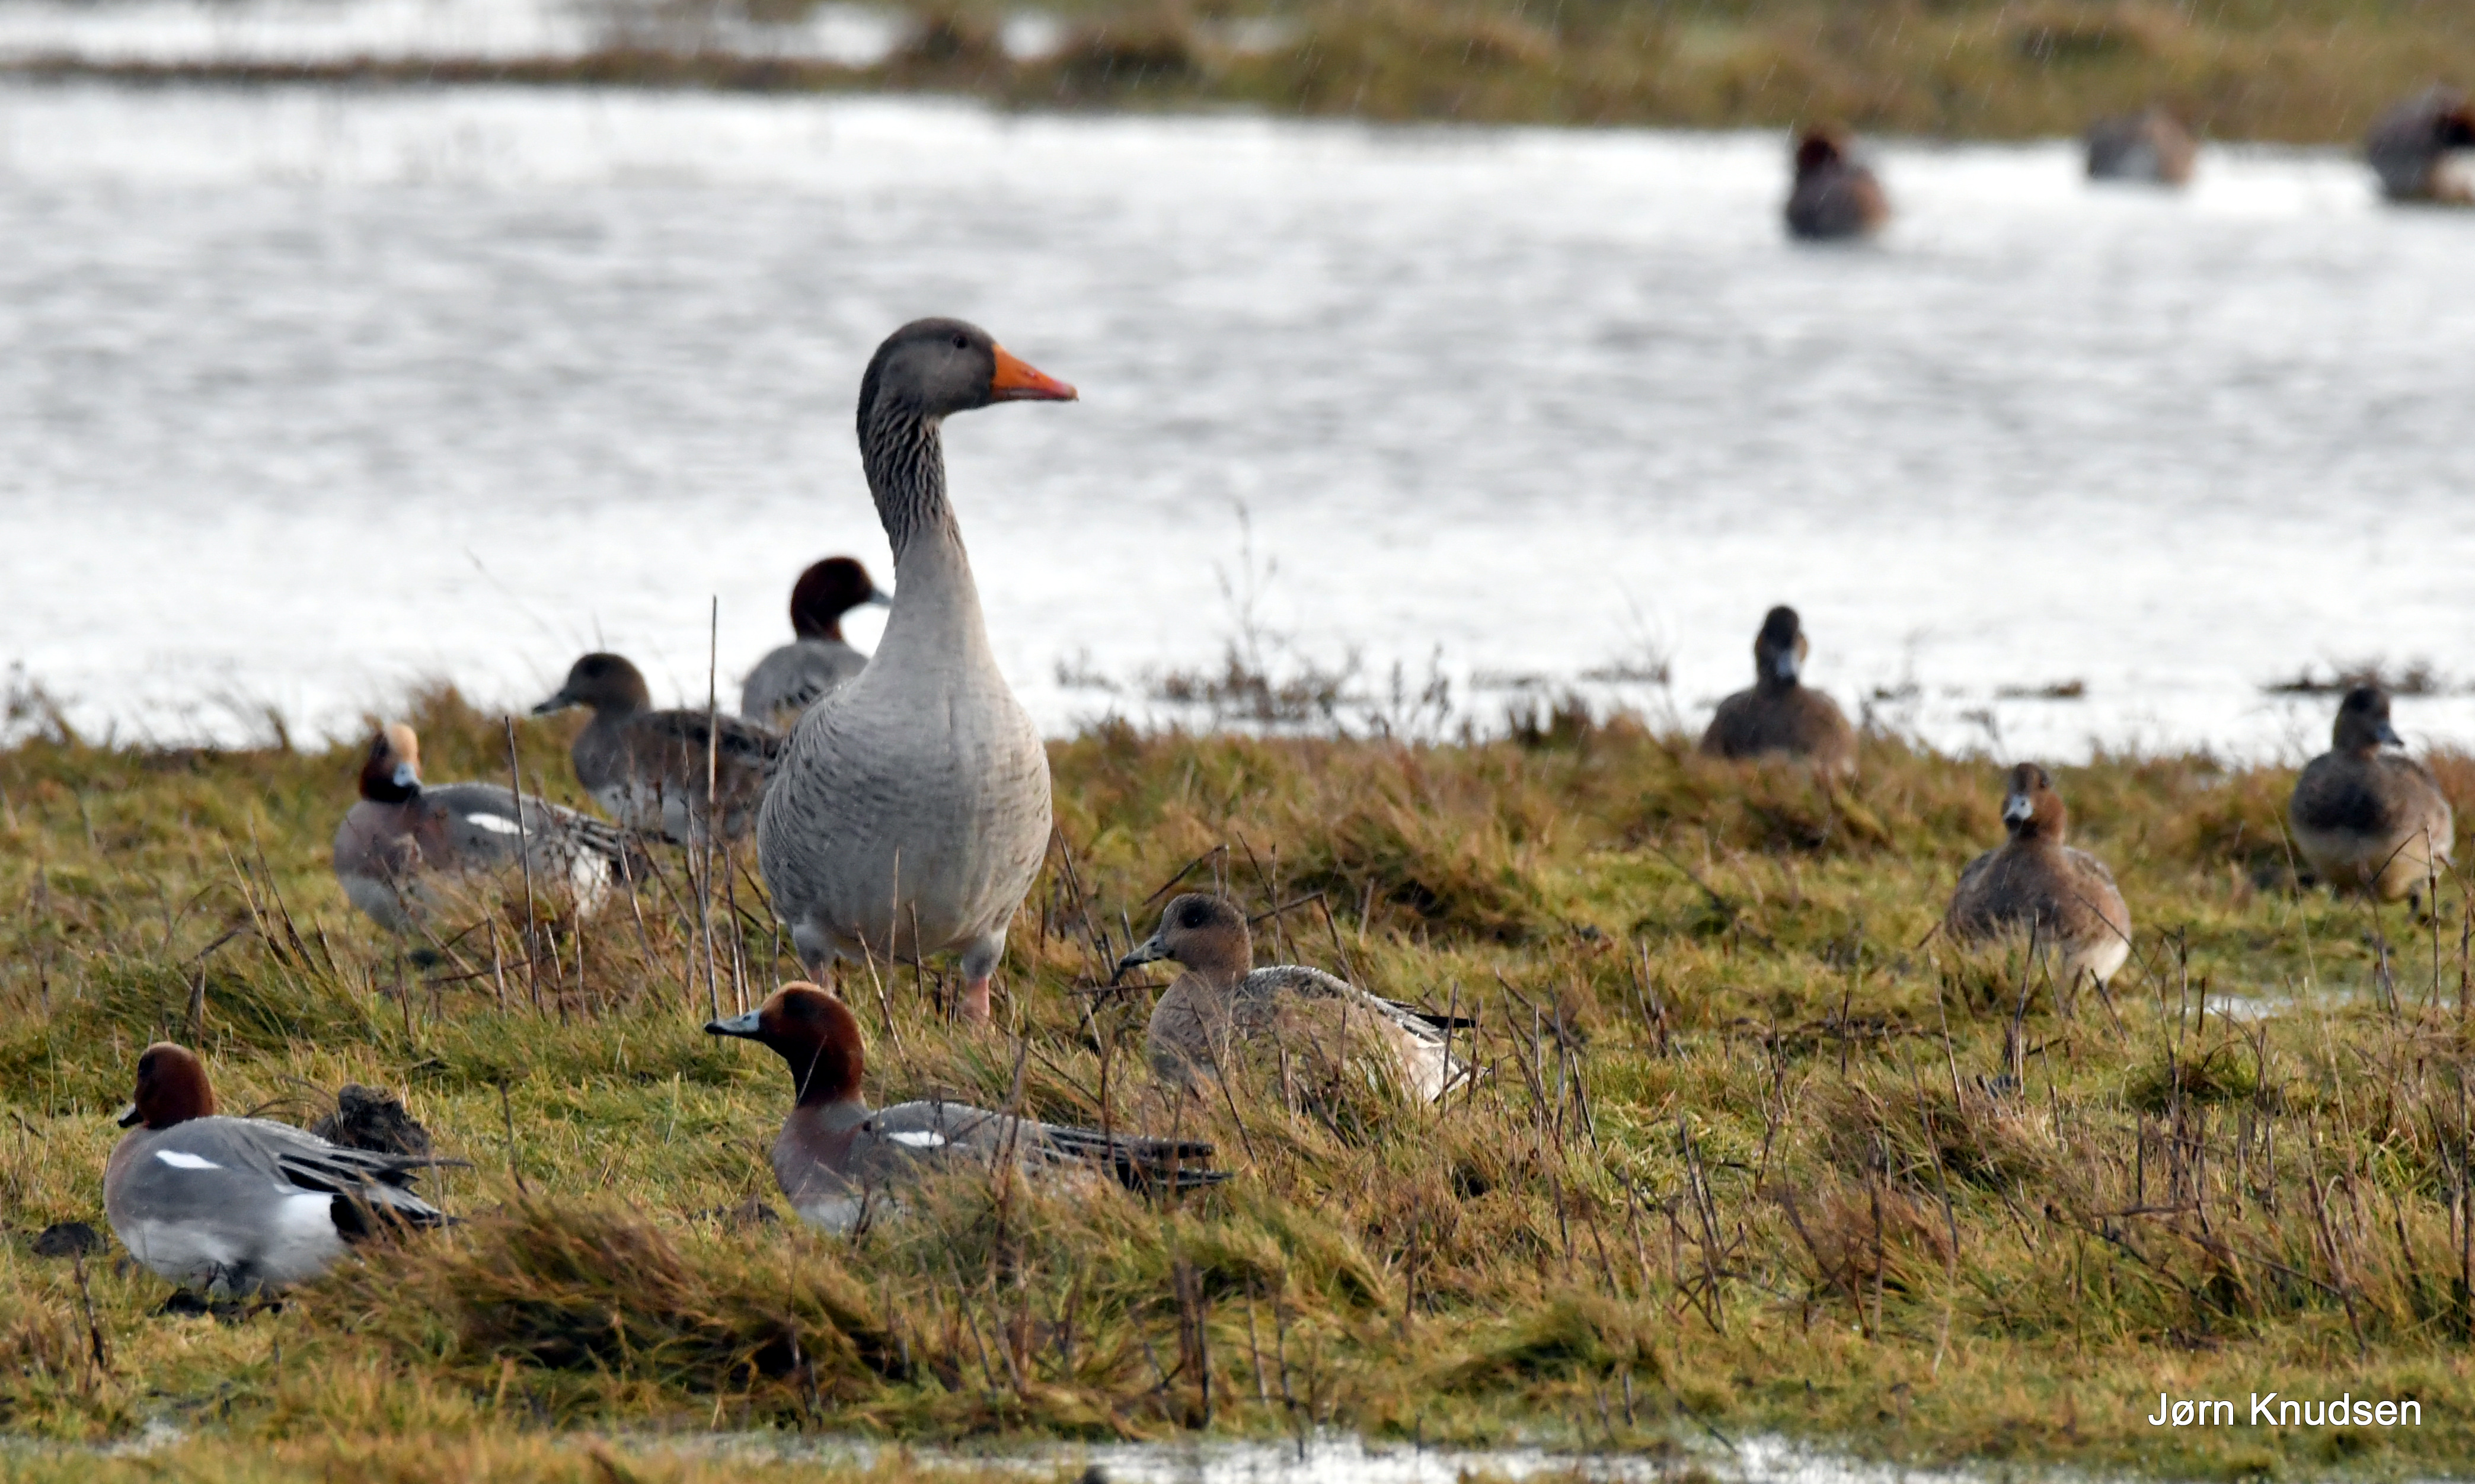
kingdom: Animalia
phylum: Chordata
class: Aves
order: Anseriformes
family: Anatidae
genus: Mareca
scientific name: Mareca penelope
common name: Pibeand
